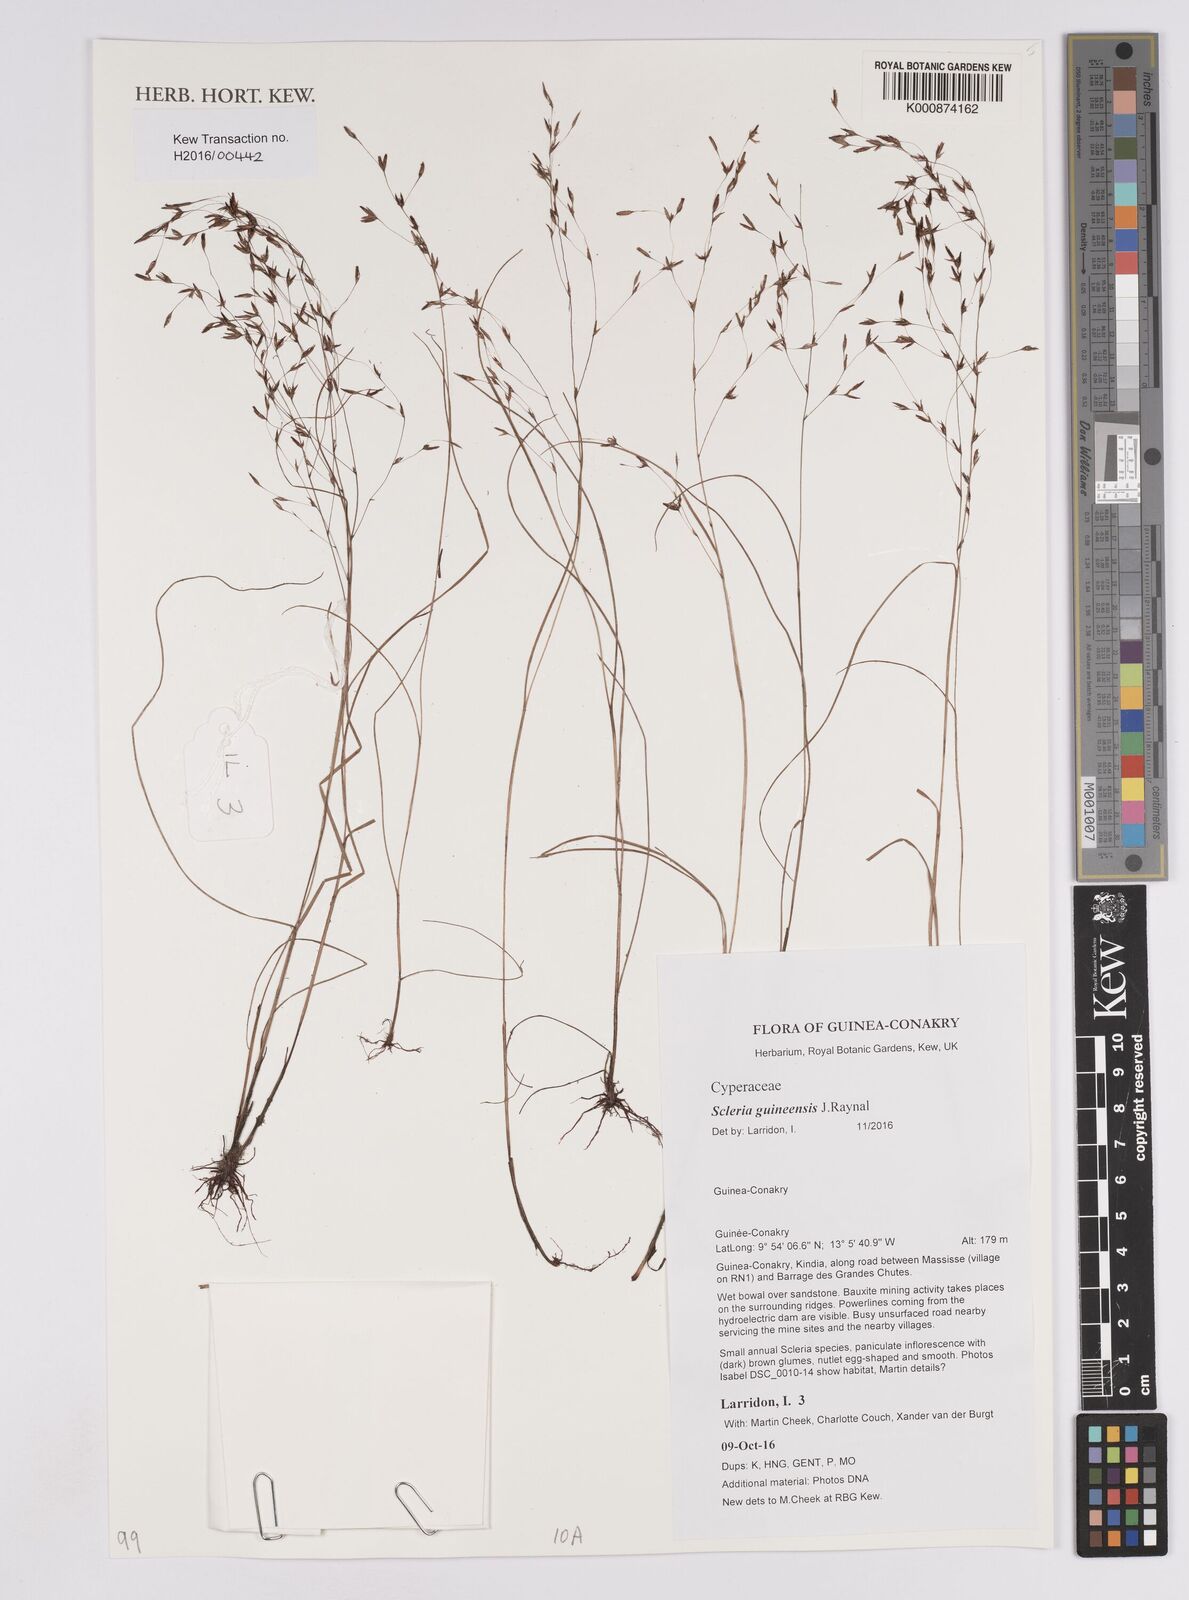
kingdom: Plantae
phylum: Tracheophyta
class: Liliopsida
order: Poales
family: Cyperaceae
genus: Scleria
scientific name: Scleria guineensis
